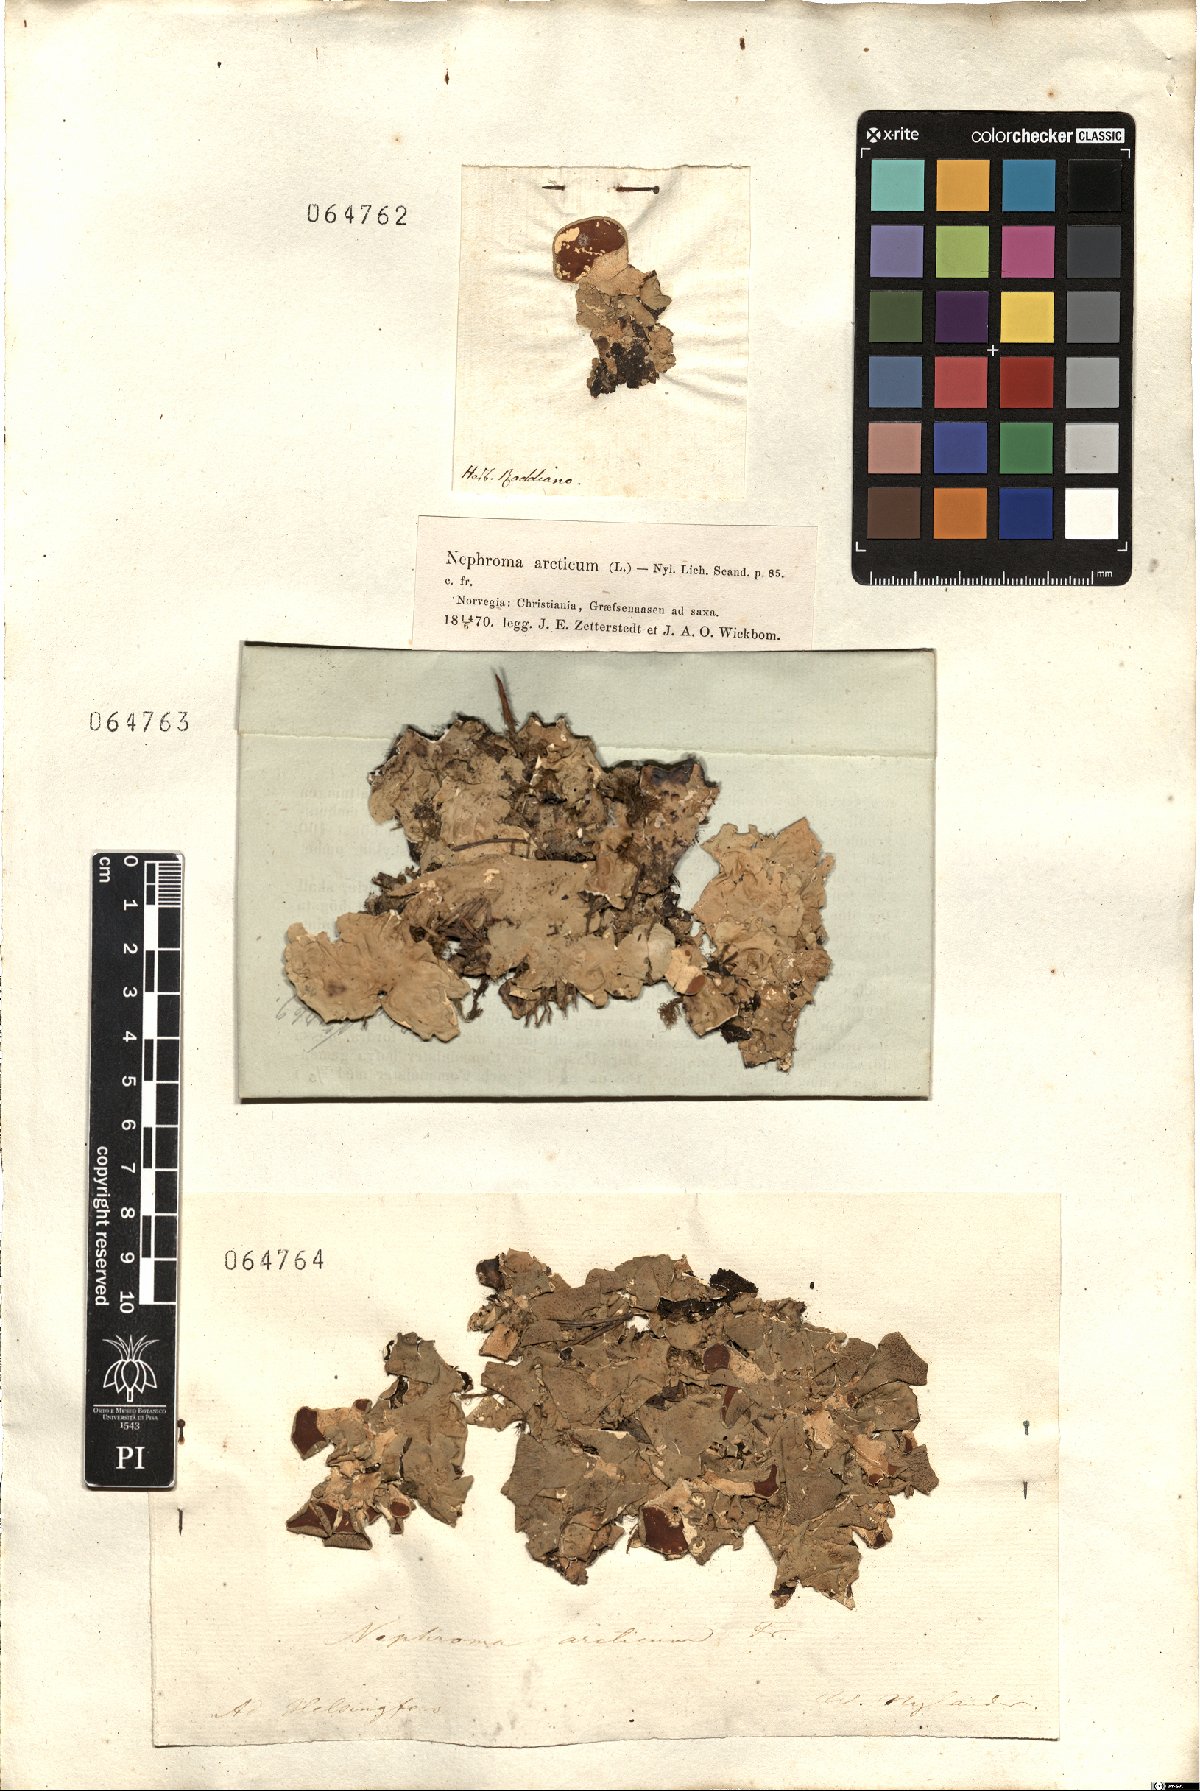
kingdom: Fungi
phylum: Ascomycota
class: Lecanoromycetes
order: Peltigerales
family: Nephromataceae
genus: Nephroma
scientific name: Nephroma arcticum
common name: Arctic kidney-lichen
